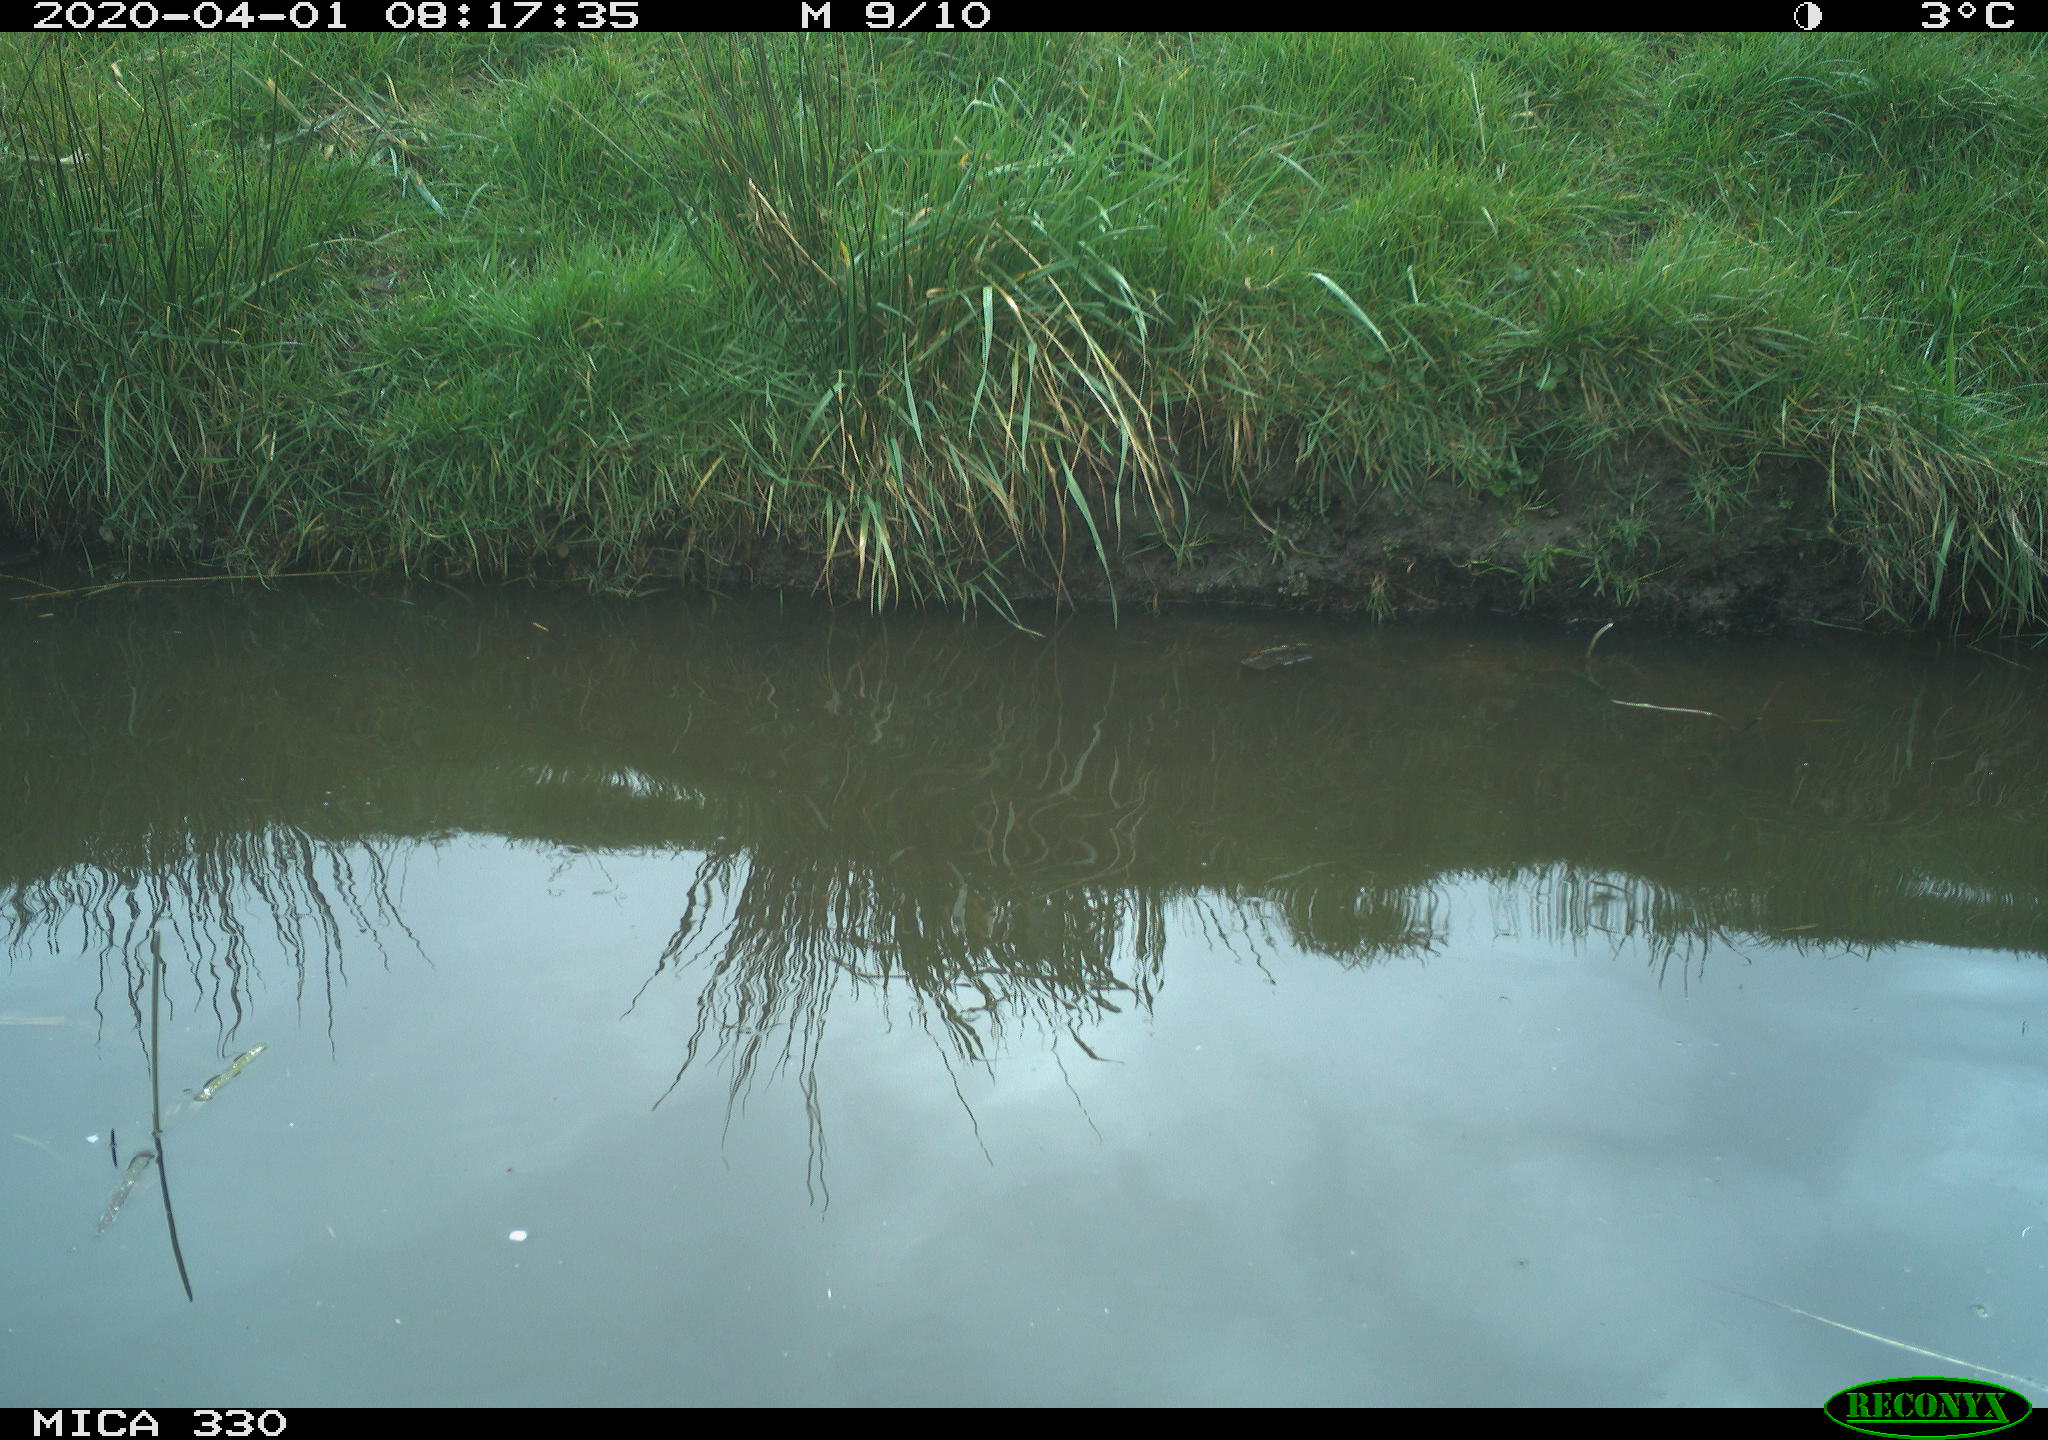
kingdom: Animalia
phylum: Chordata
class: Aves
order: Anseriformes
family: Anatidae
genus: Anas
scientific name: Anas platyrhynchos
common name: Mallard
